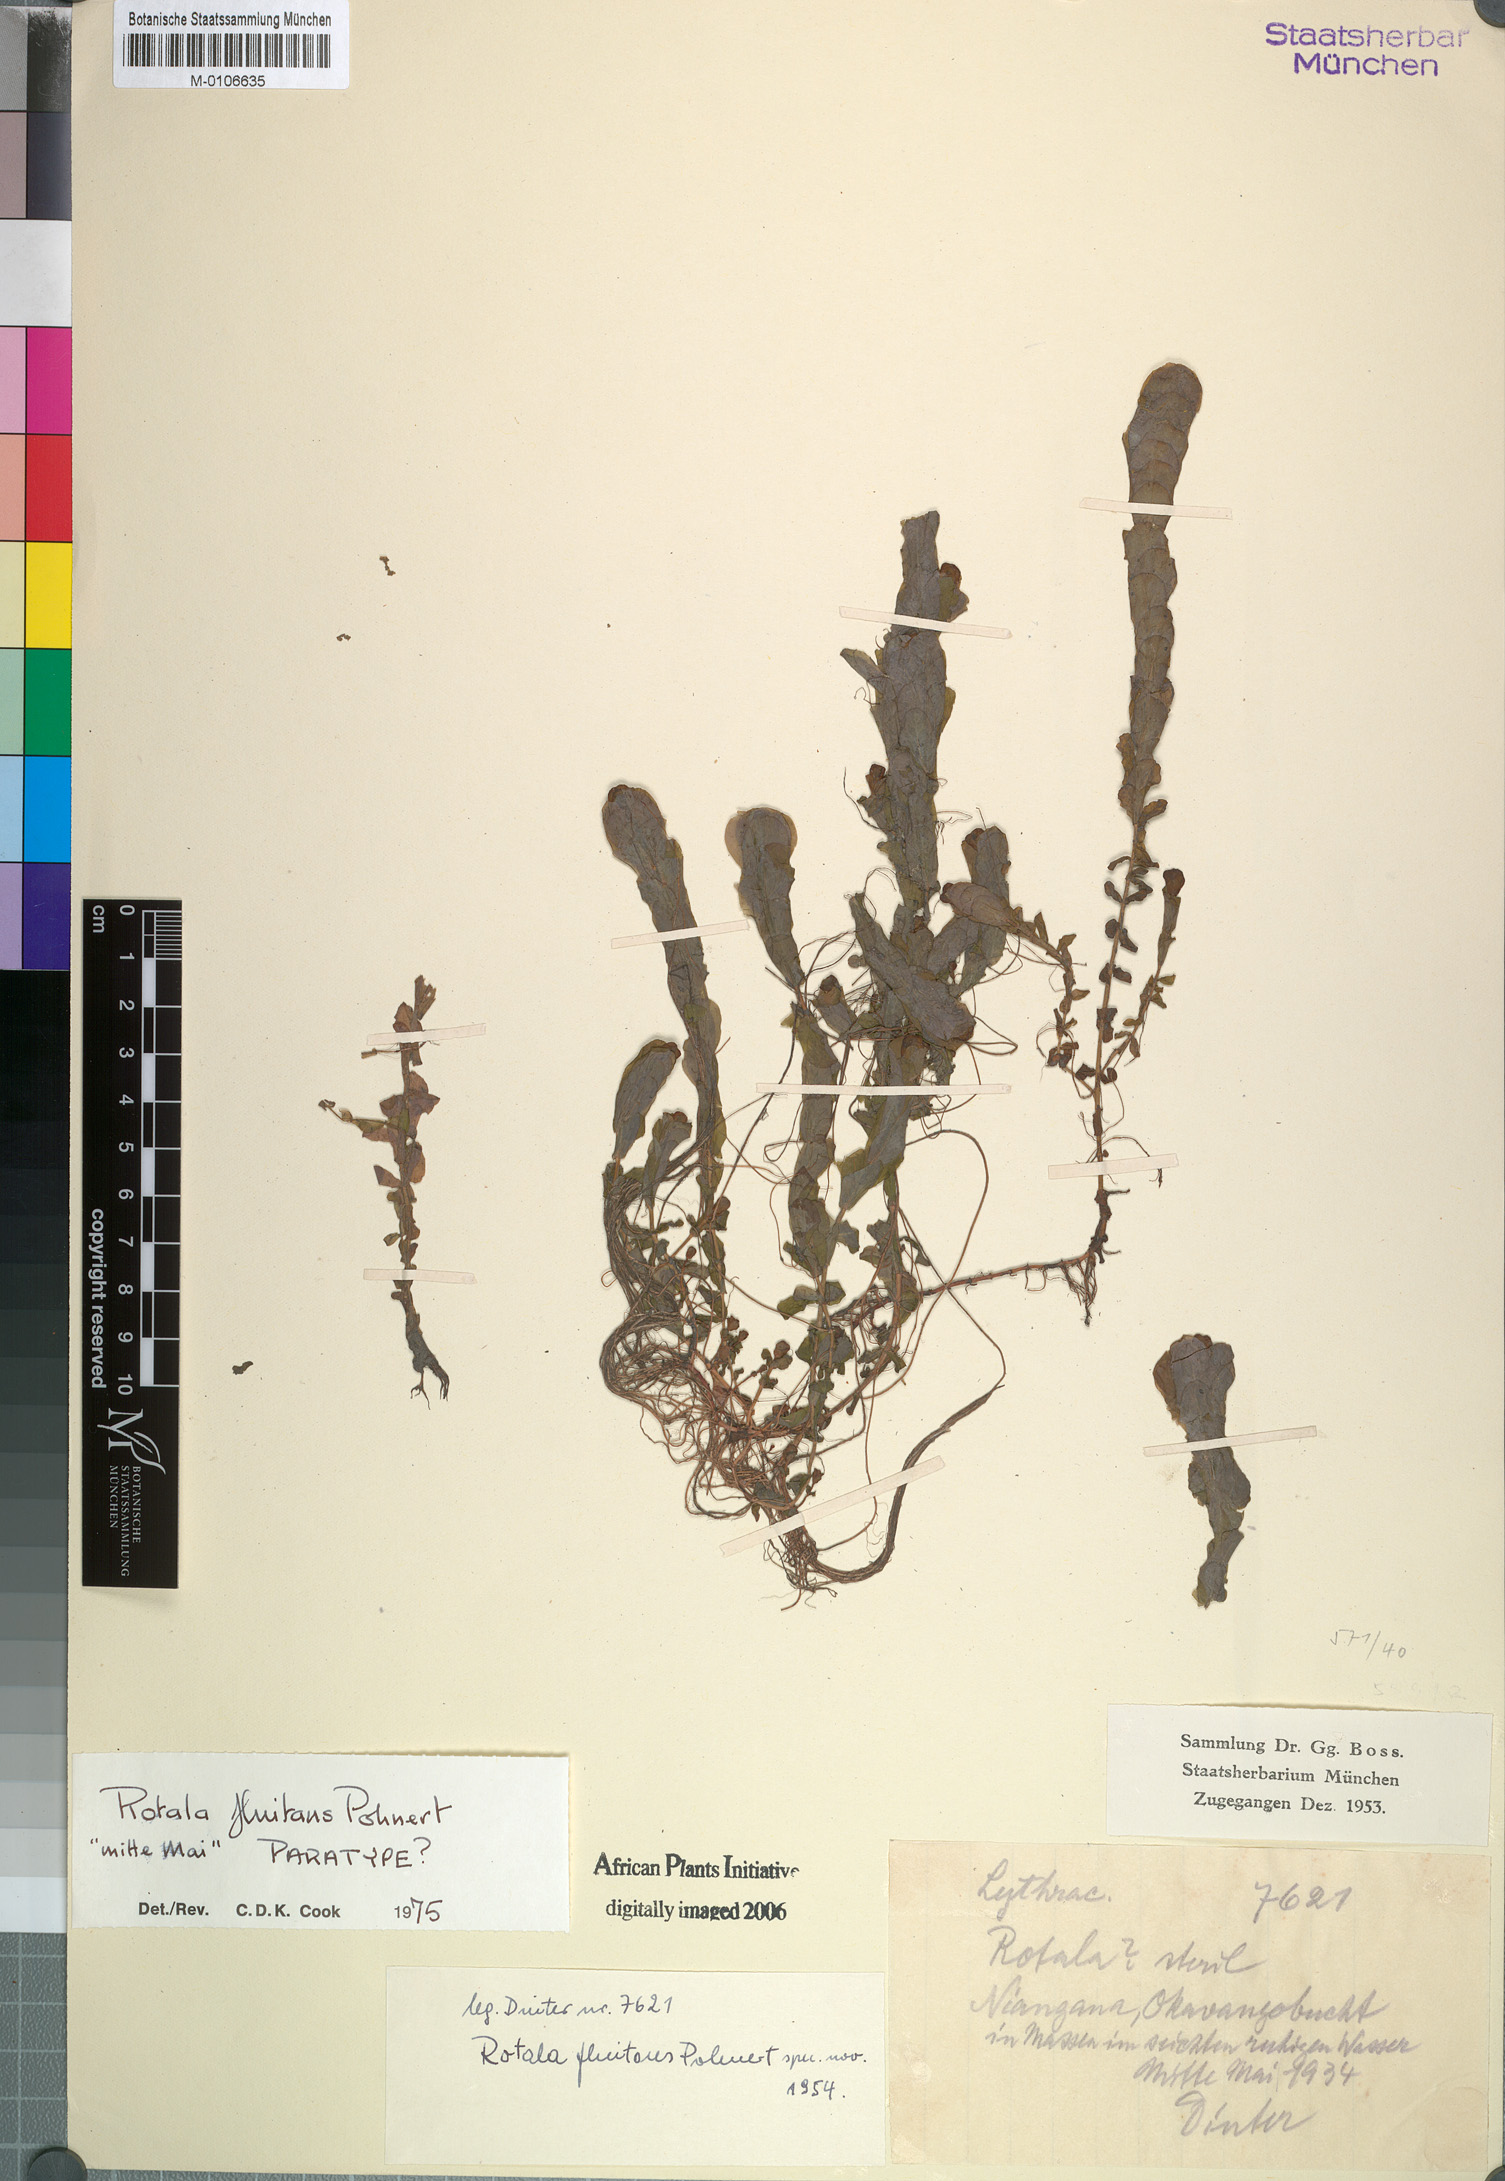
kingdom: Plantae
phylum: Tracheophyta
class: Magnoliopsida
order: Myrtales
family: Lythraceae
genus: Rotala
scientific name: Rotala fluitans
